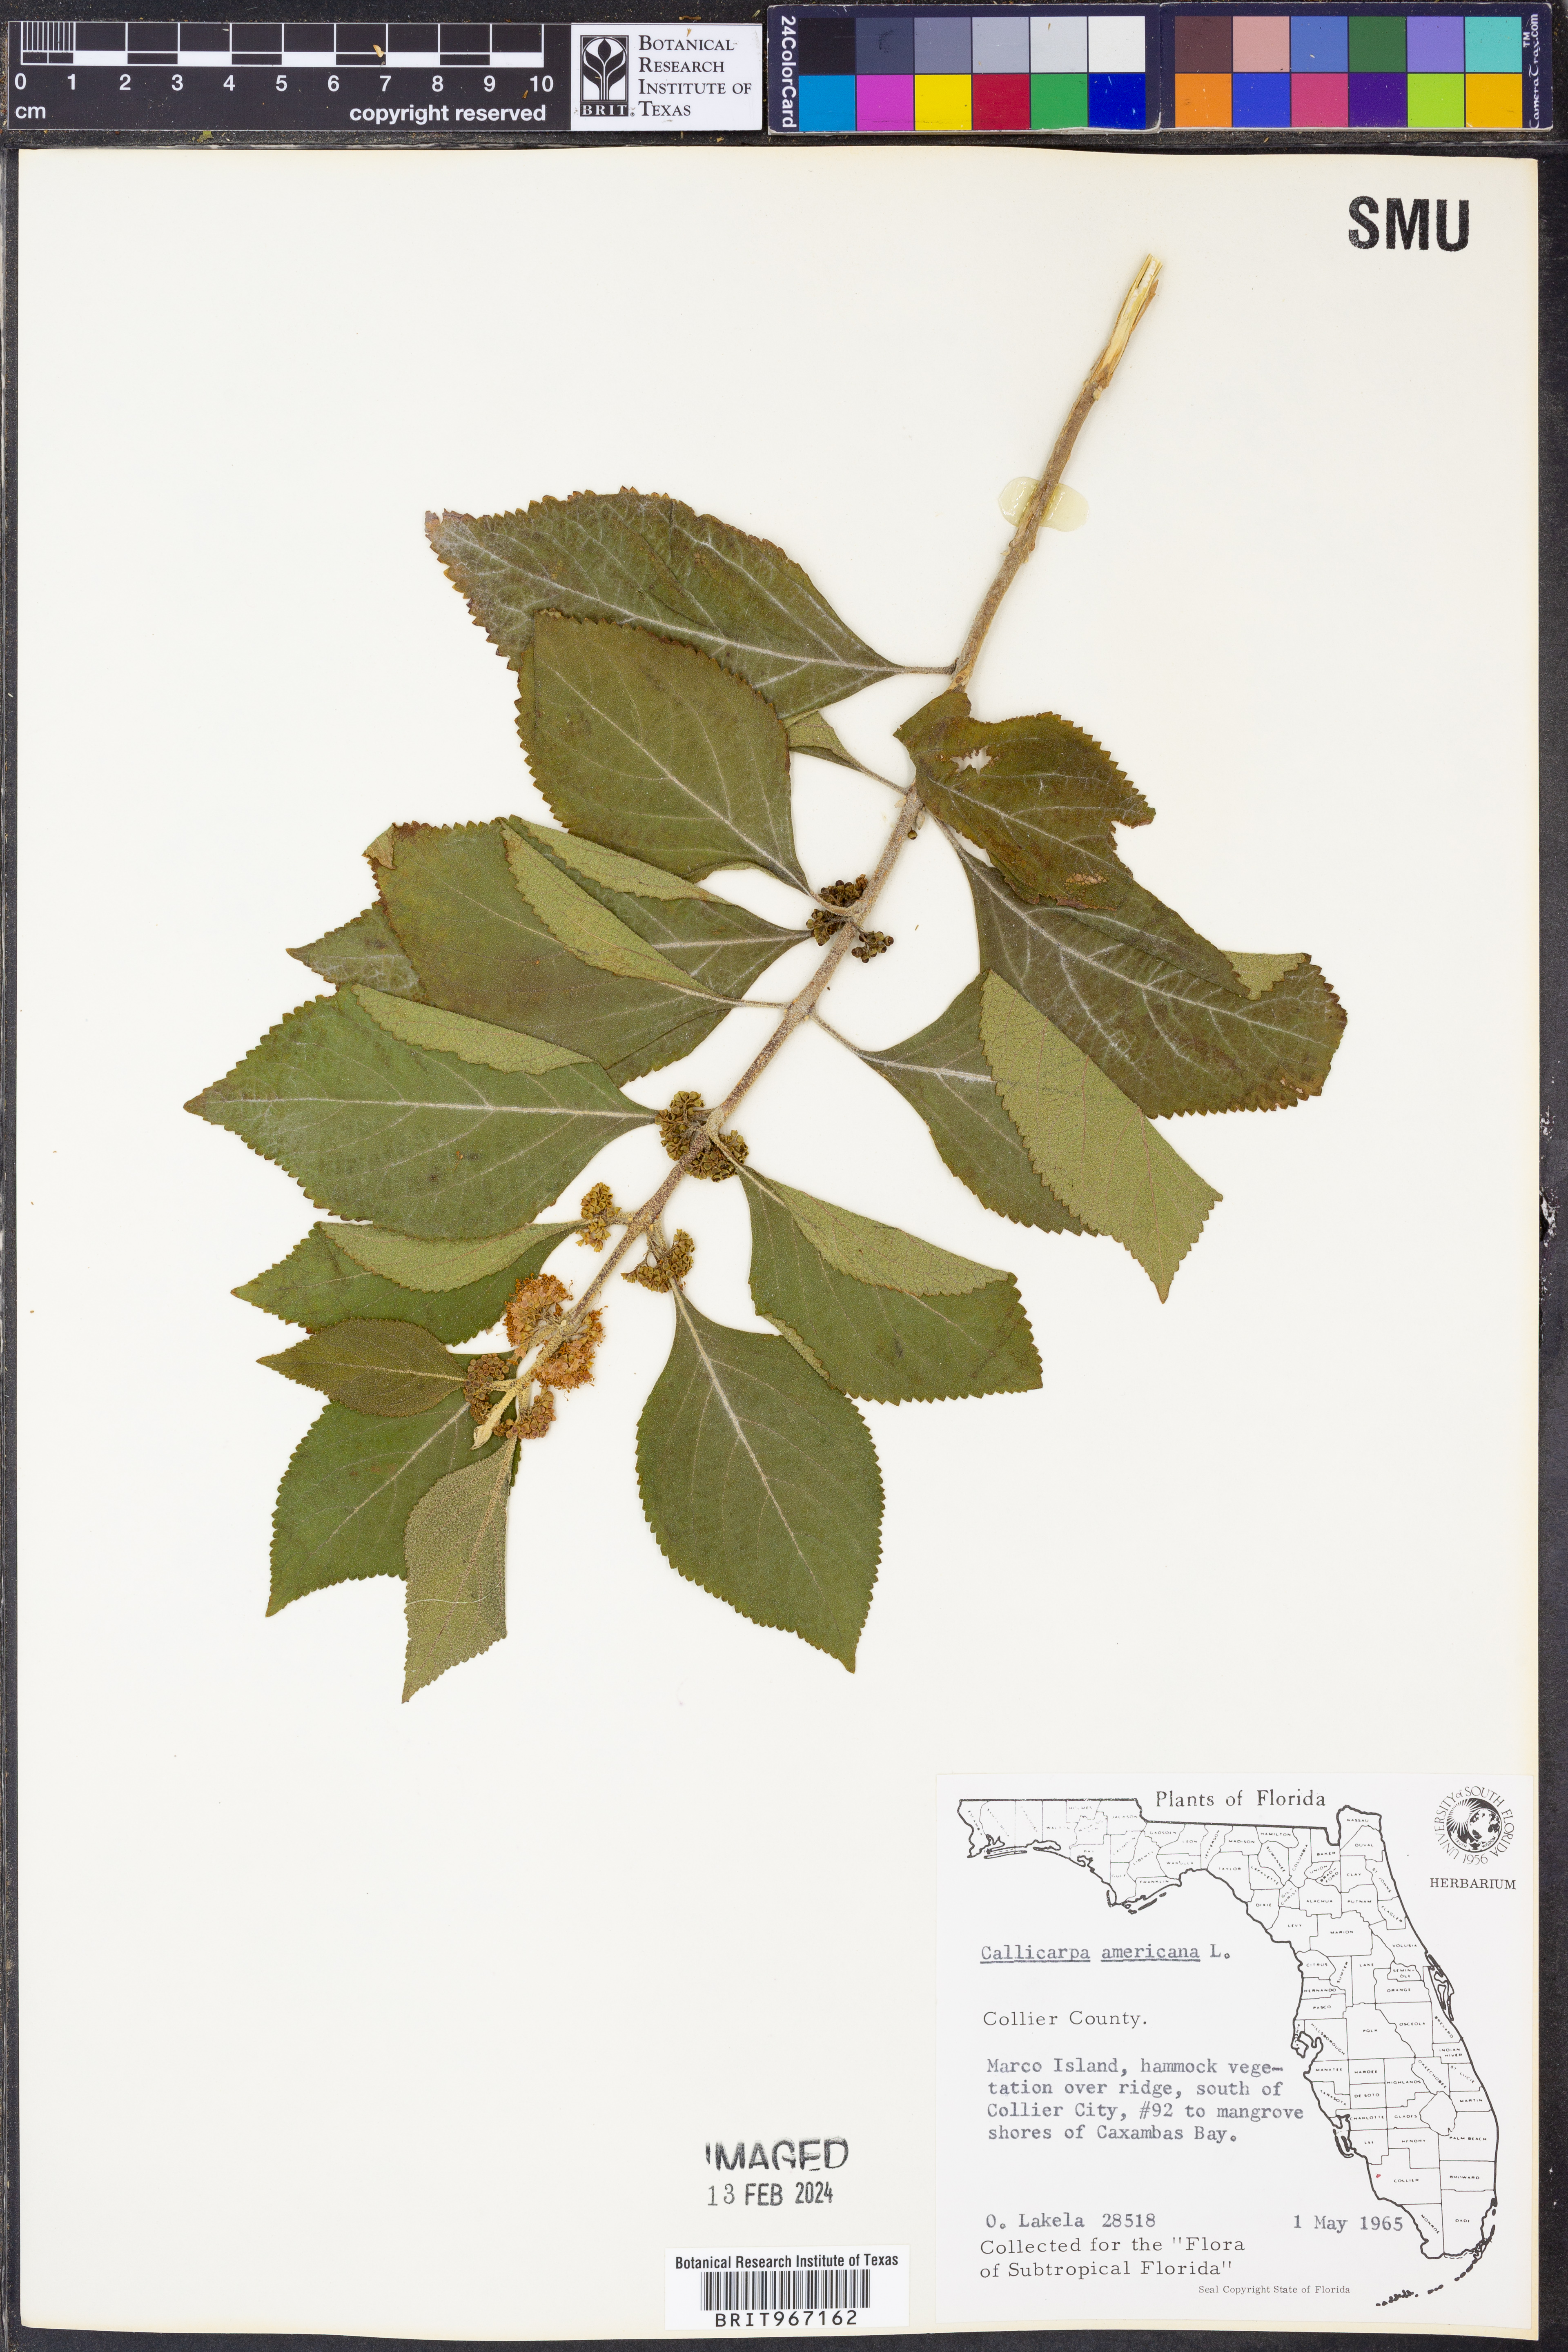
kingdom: Plantae
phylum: Tracheophyta
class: Magnoliopsida
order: Lamiales
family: Lamiaceae
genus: Callicarpa
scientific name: Callicarpa americana
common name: American beautyberry
